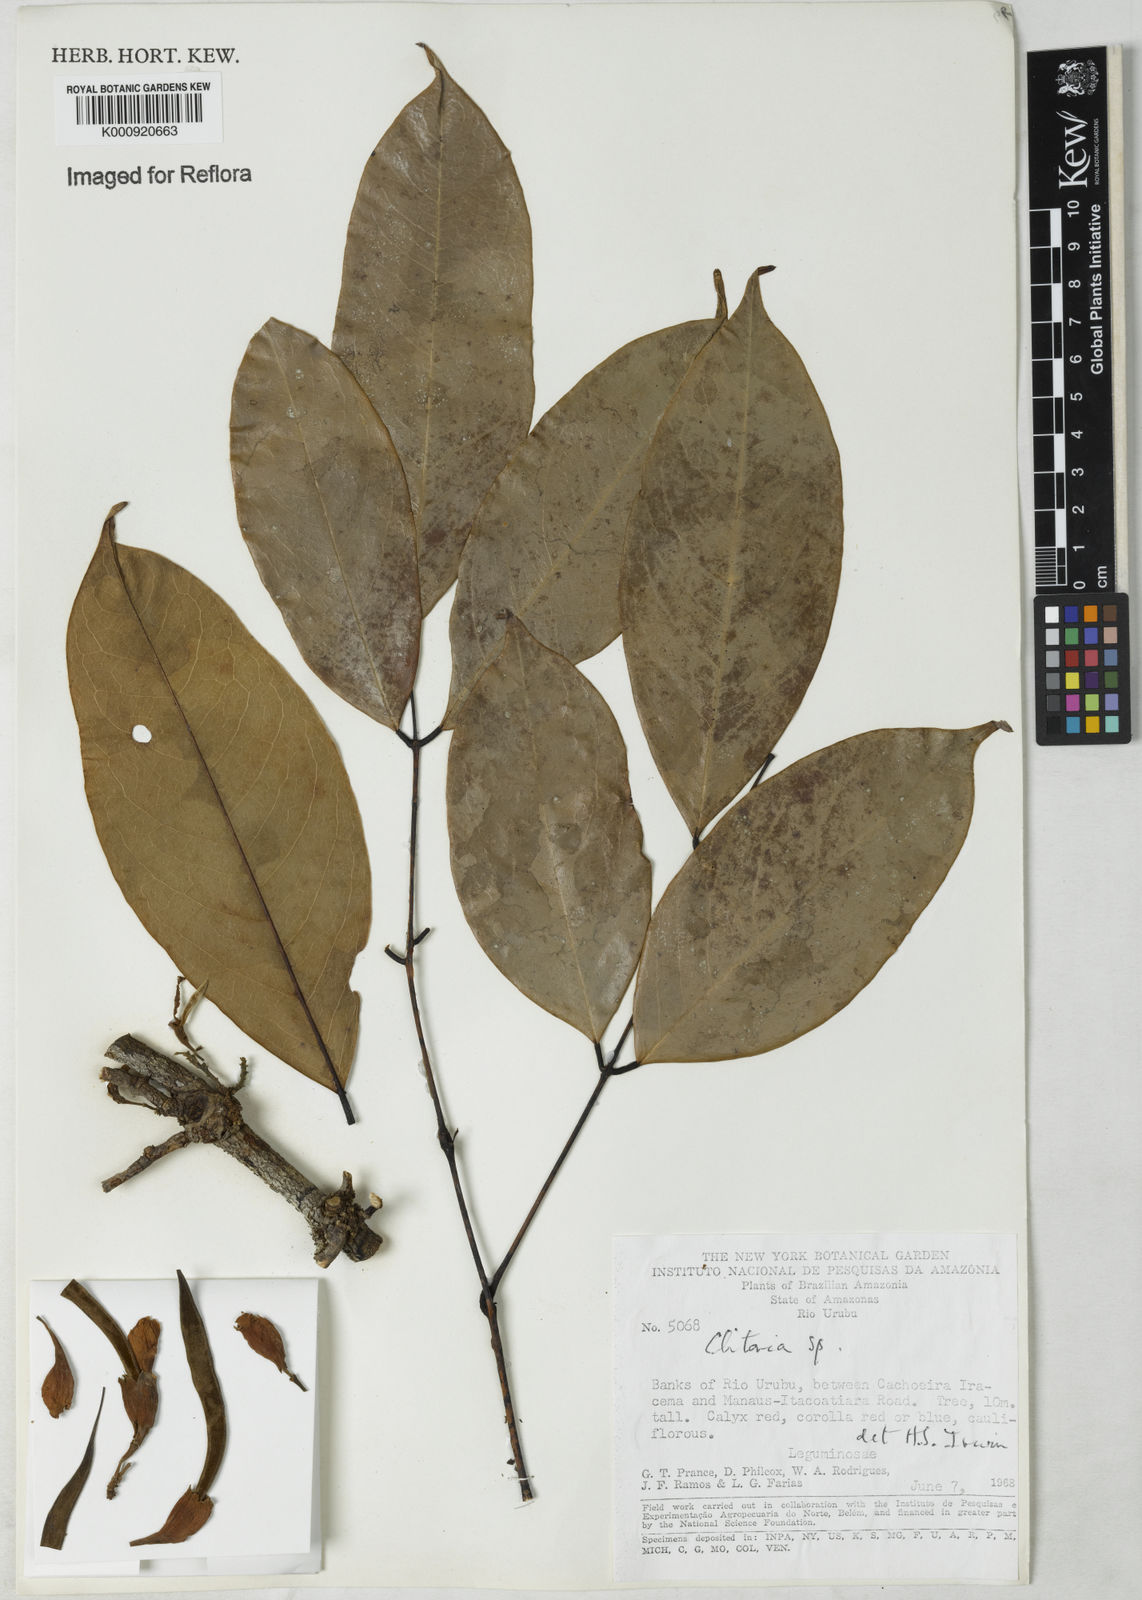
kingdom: Plantae
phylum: Tracheophyta
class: Magnoliopsida
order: Fabales
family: Fabaceae
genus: Clitoria
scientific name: Clitoria
